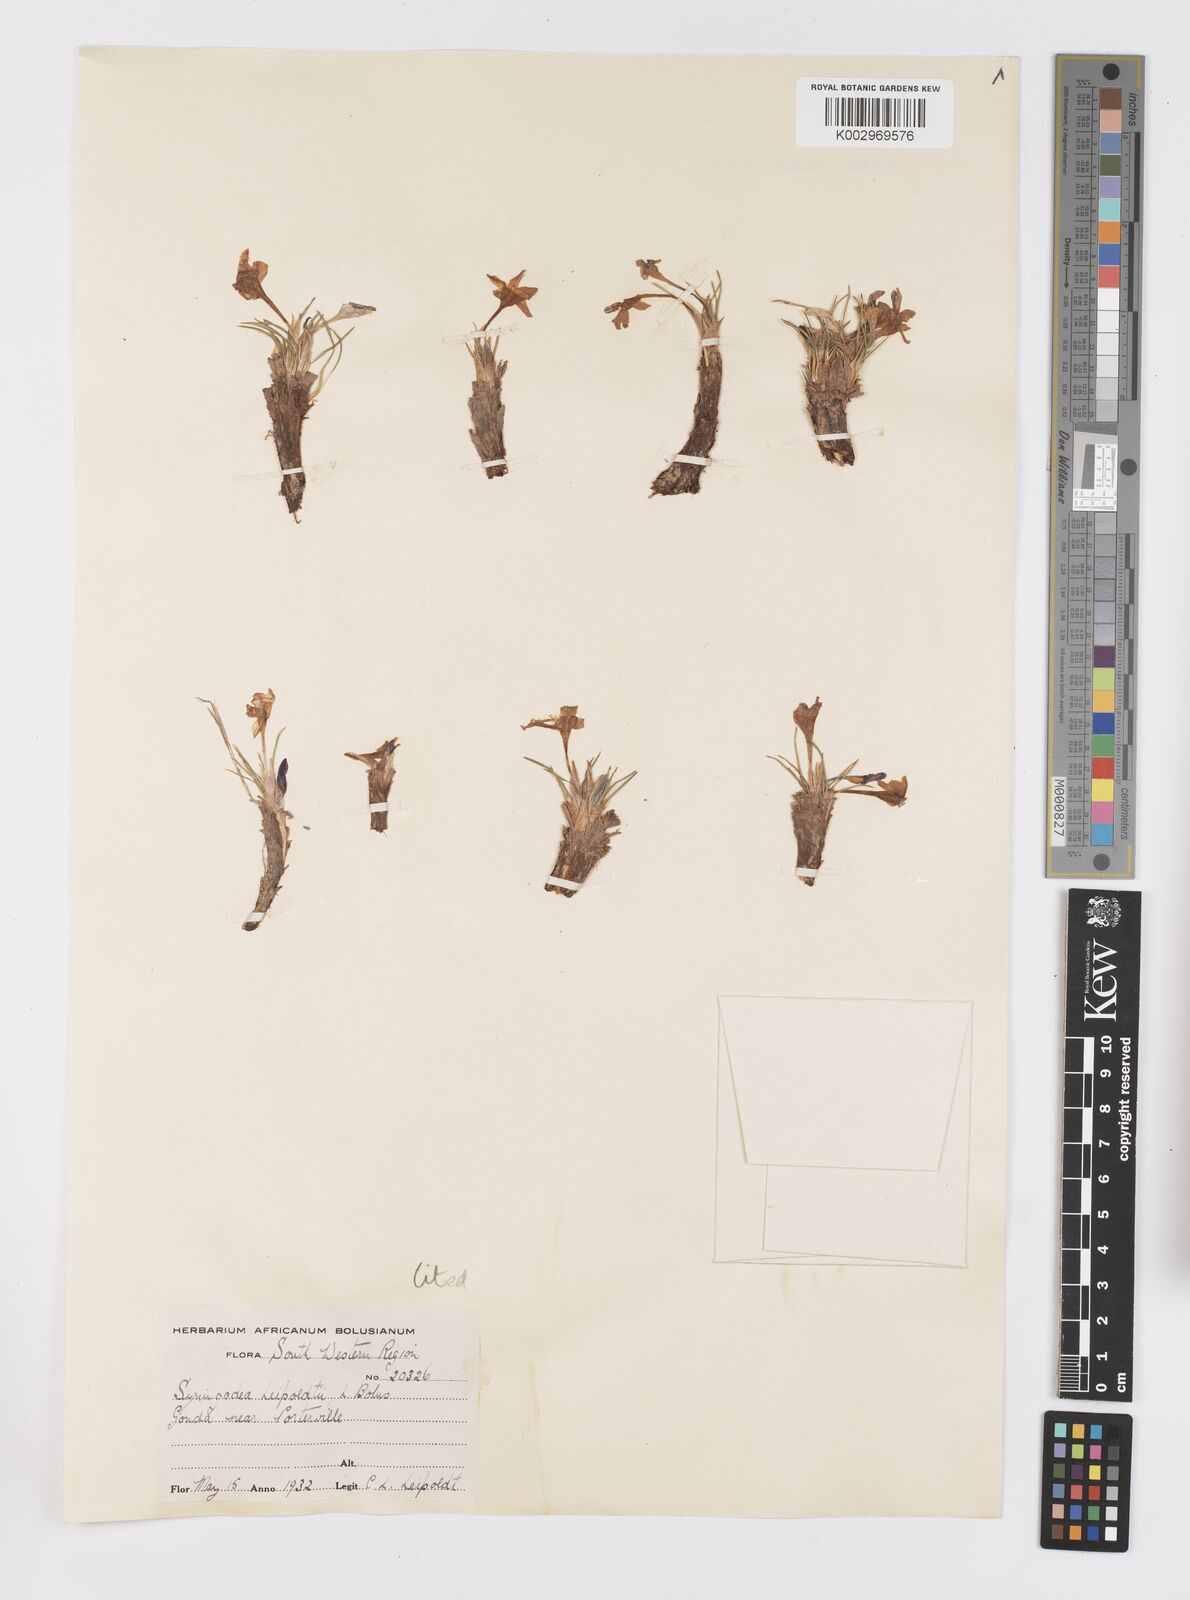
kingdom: Plantae
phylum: Tracheophyta
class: Liliopsida
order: Asparagales
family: Iridaceae
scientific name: Iridaceae
